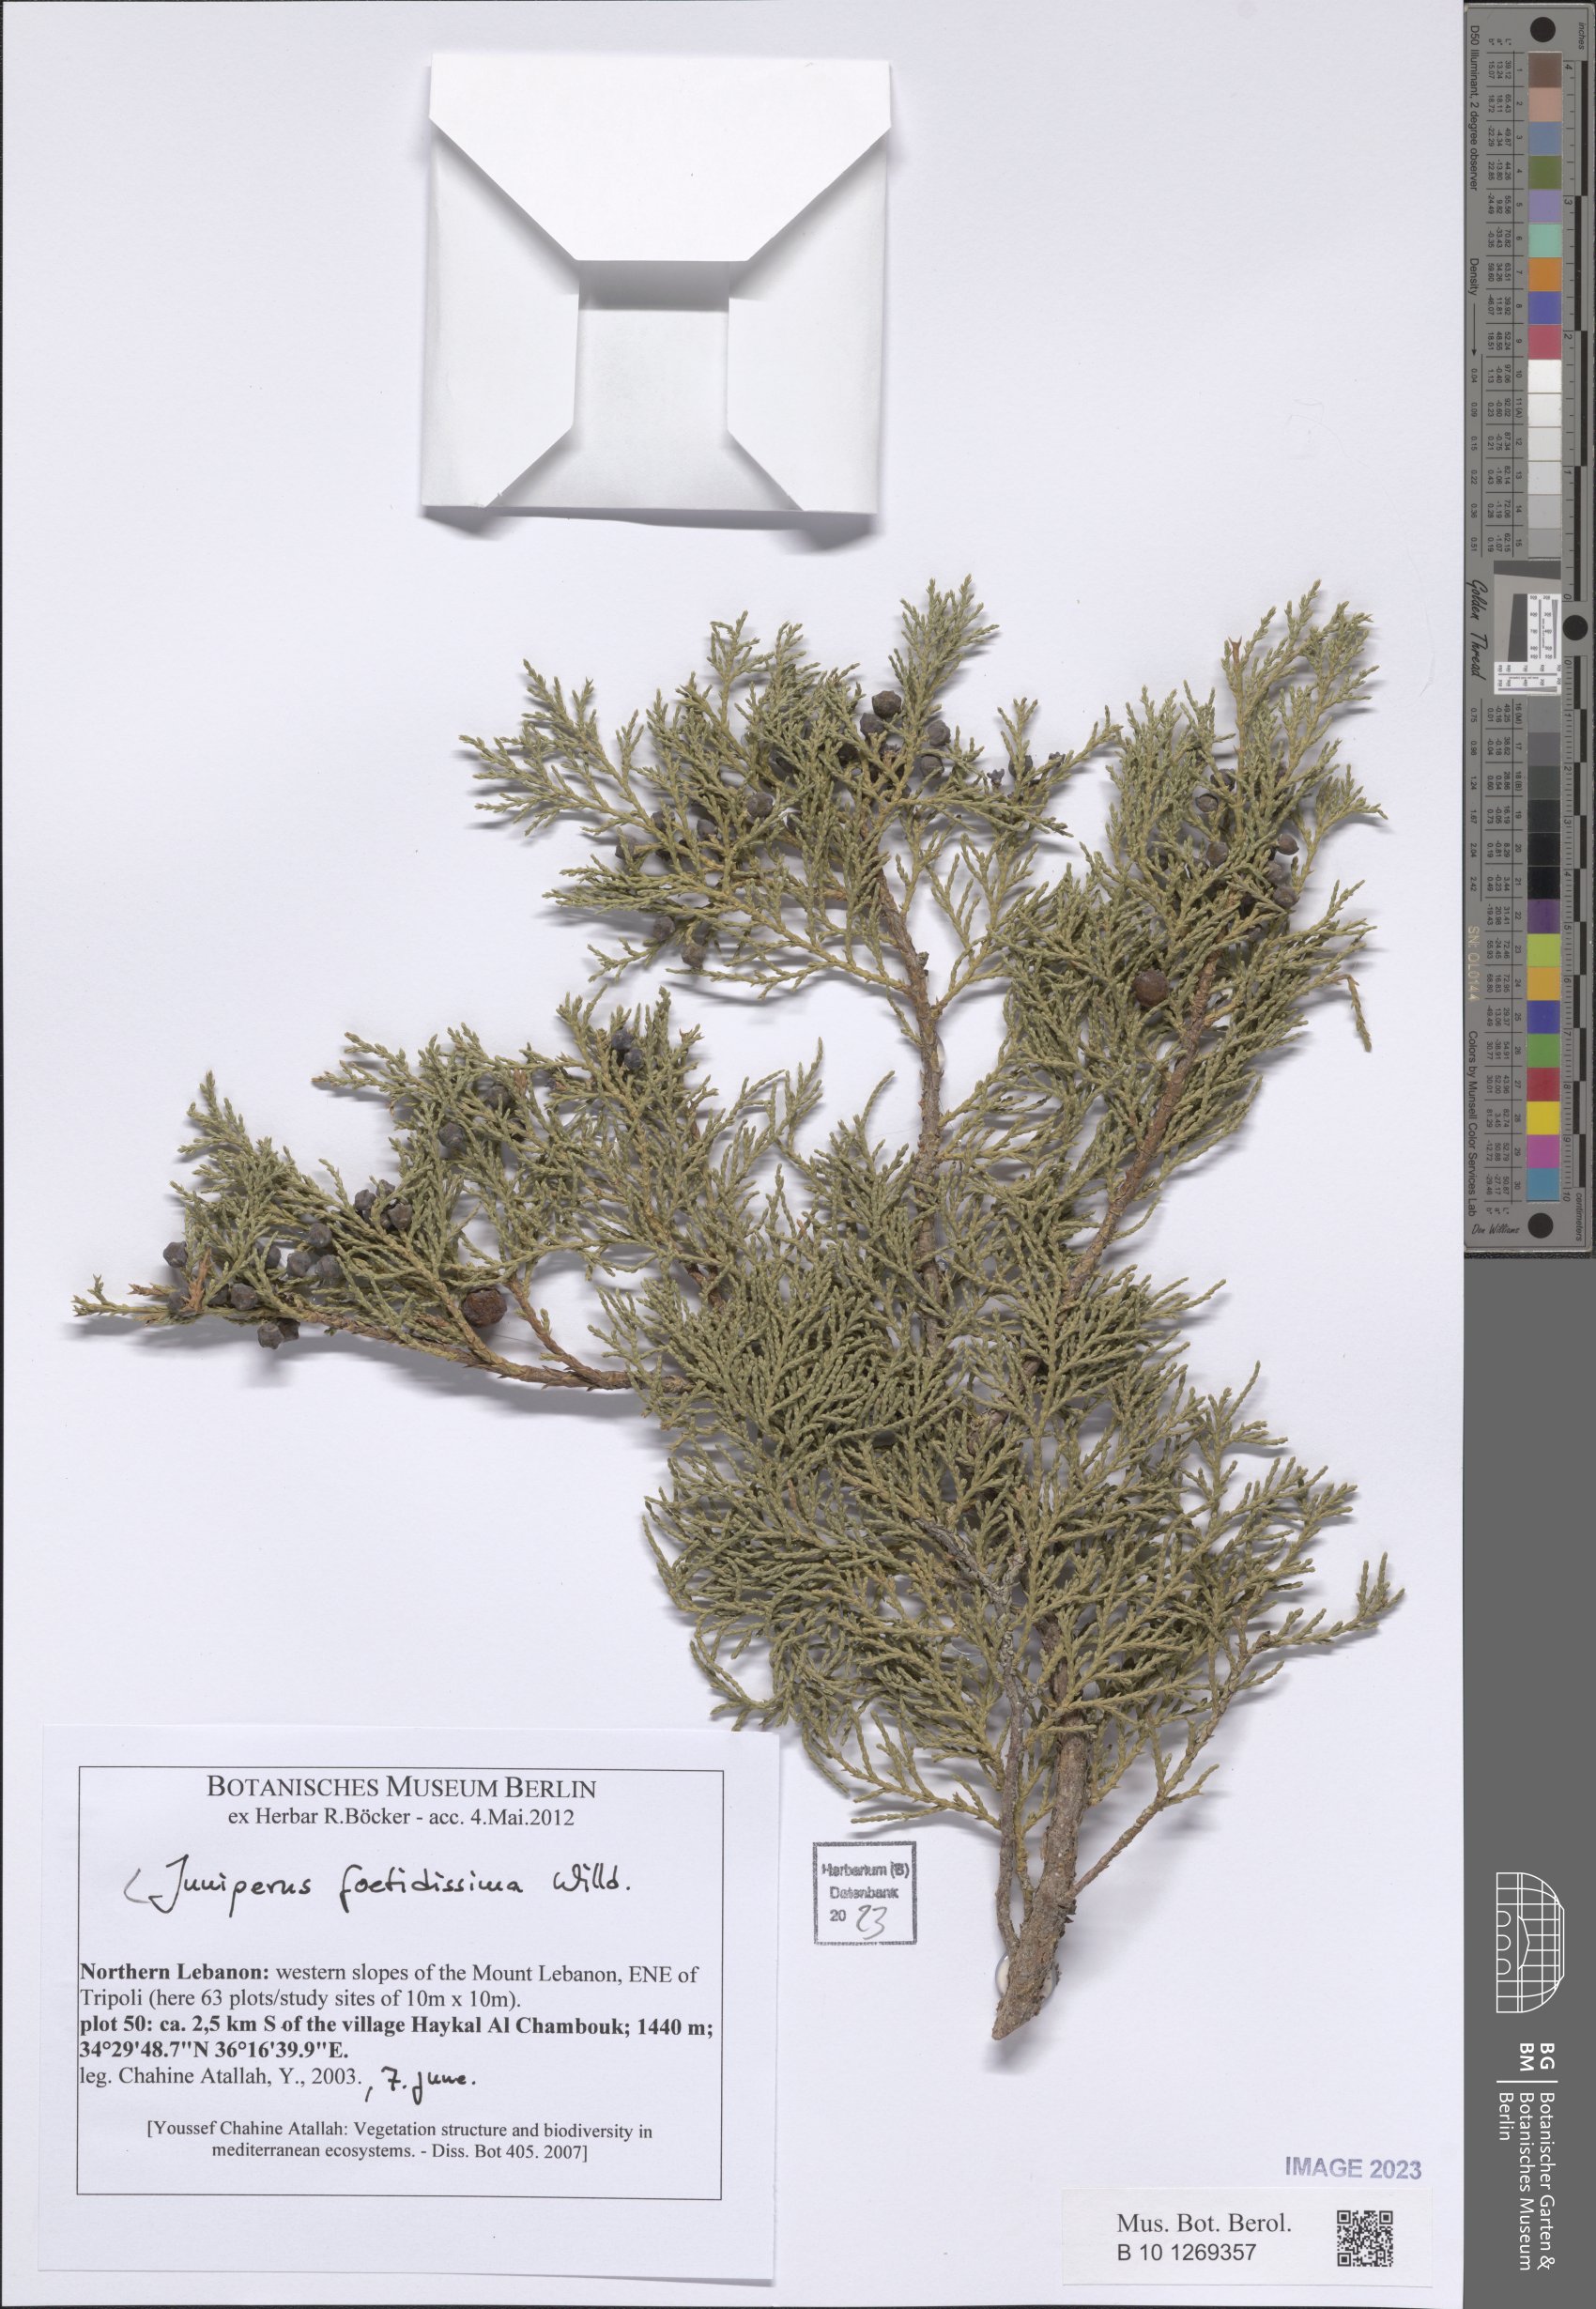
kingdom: Plantae
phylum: Tracheophyta
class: Pinopsida
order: Pinales
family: Cupressaceae
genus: Juniperus
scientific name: Juniperus foetidissima
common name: Stinking juniper
